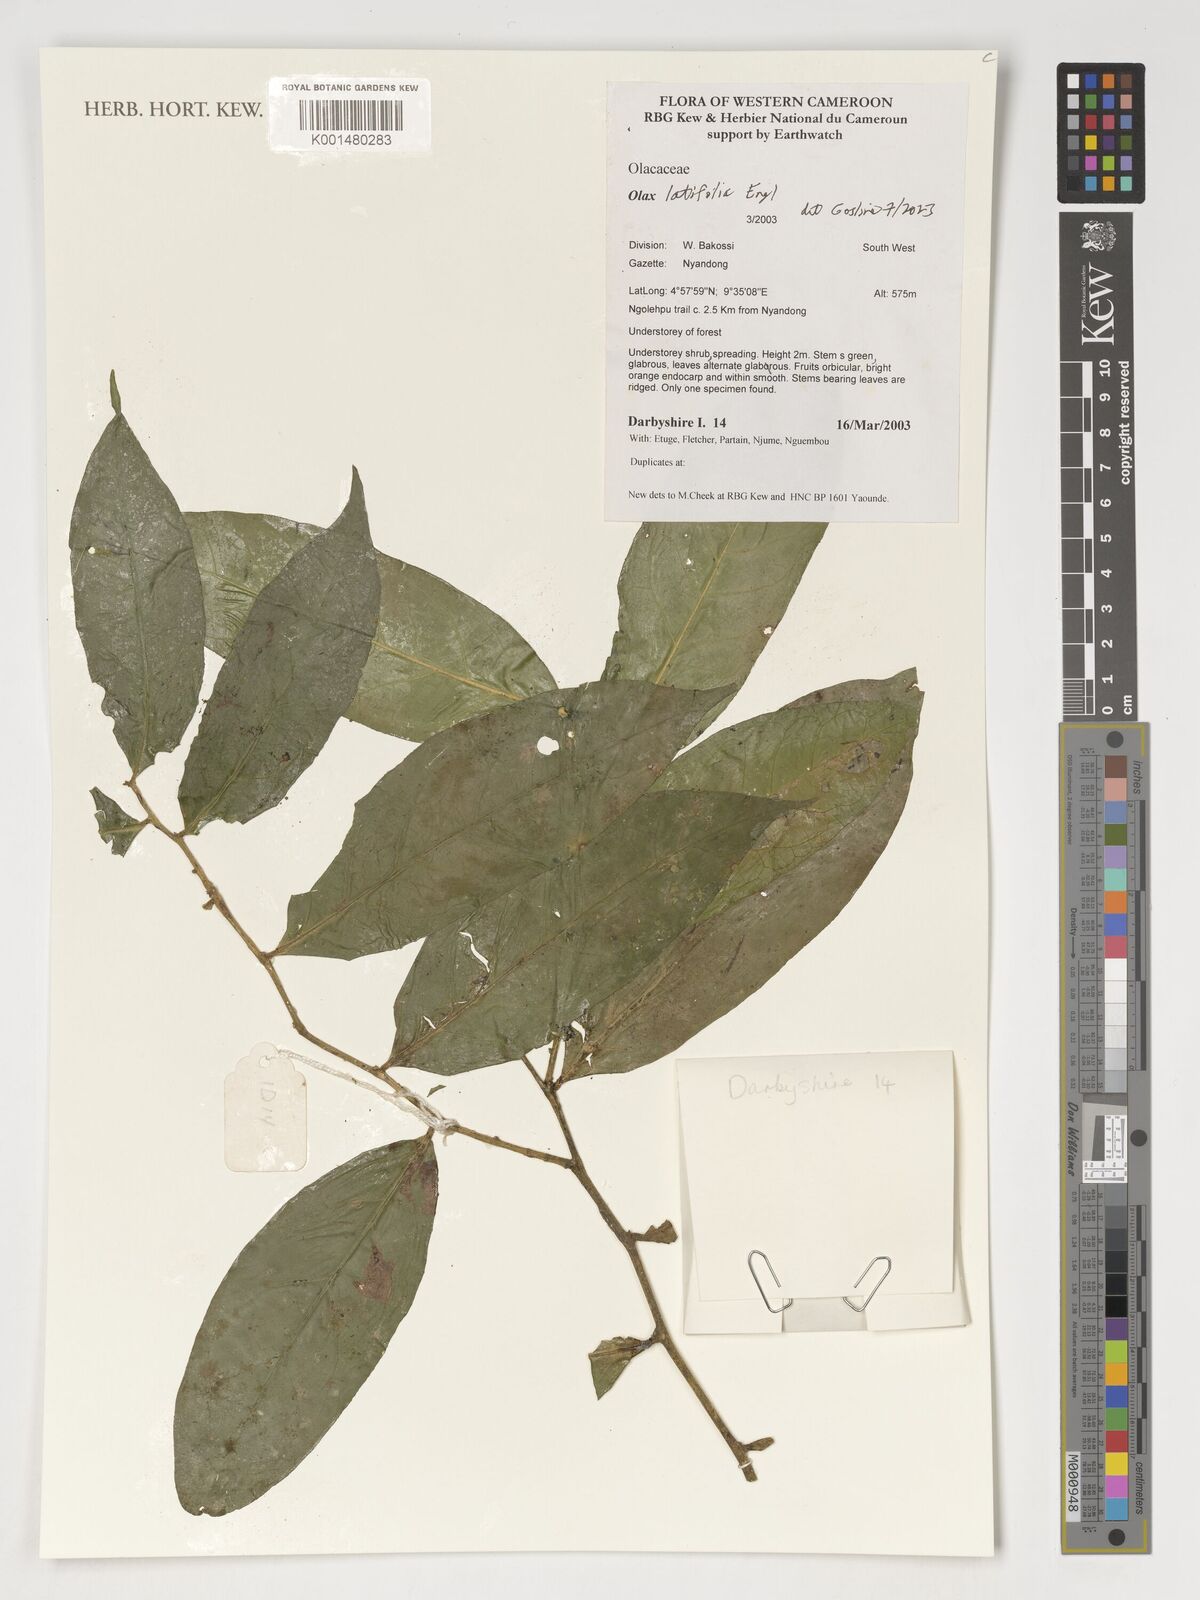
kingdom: Plantae
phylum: Tracheophyta
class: Magnoliopsida
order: Santalales
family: Olacaceae
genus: Olax
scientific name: Olax latifolia
